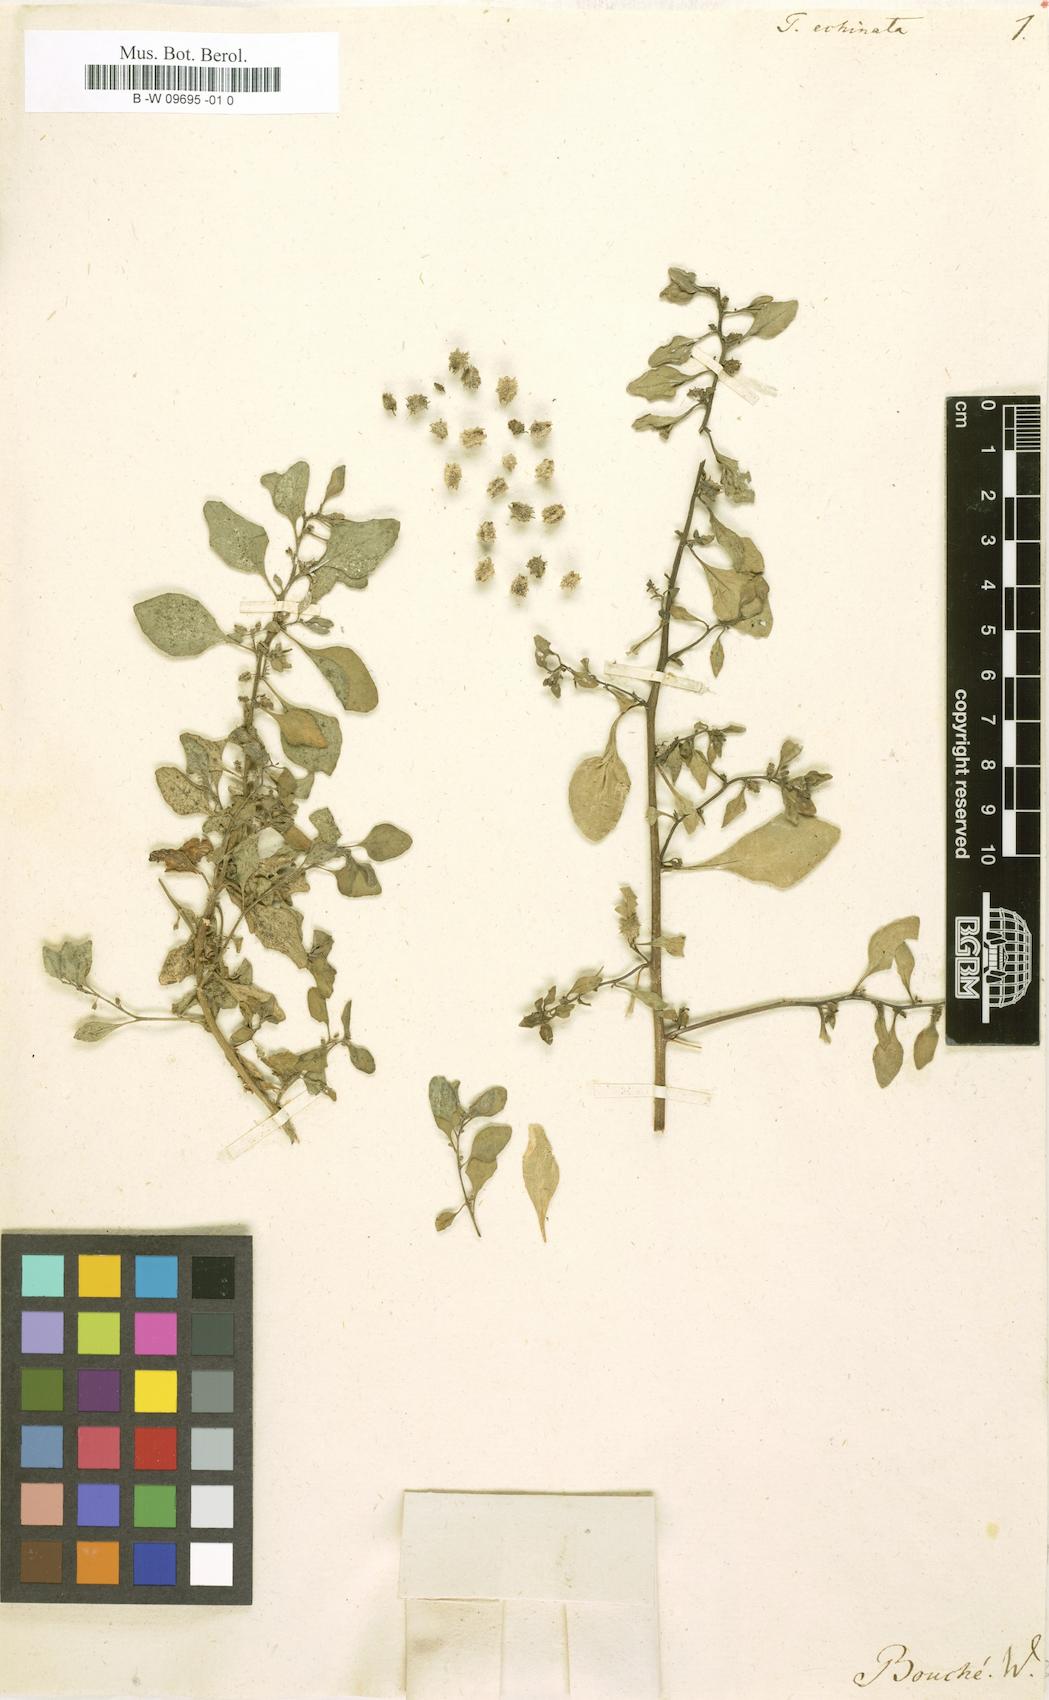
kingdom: Plantae
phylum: Tracheophyta
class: Magnoliopsida
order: Caryophyllales
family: Aizoaceae
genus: Tetragonia
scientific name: Tetragonia echinata
